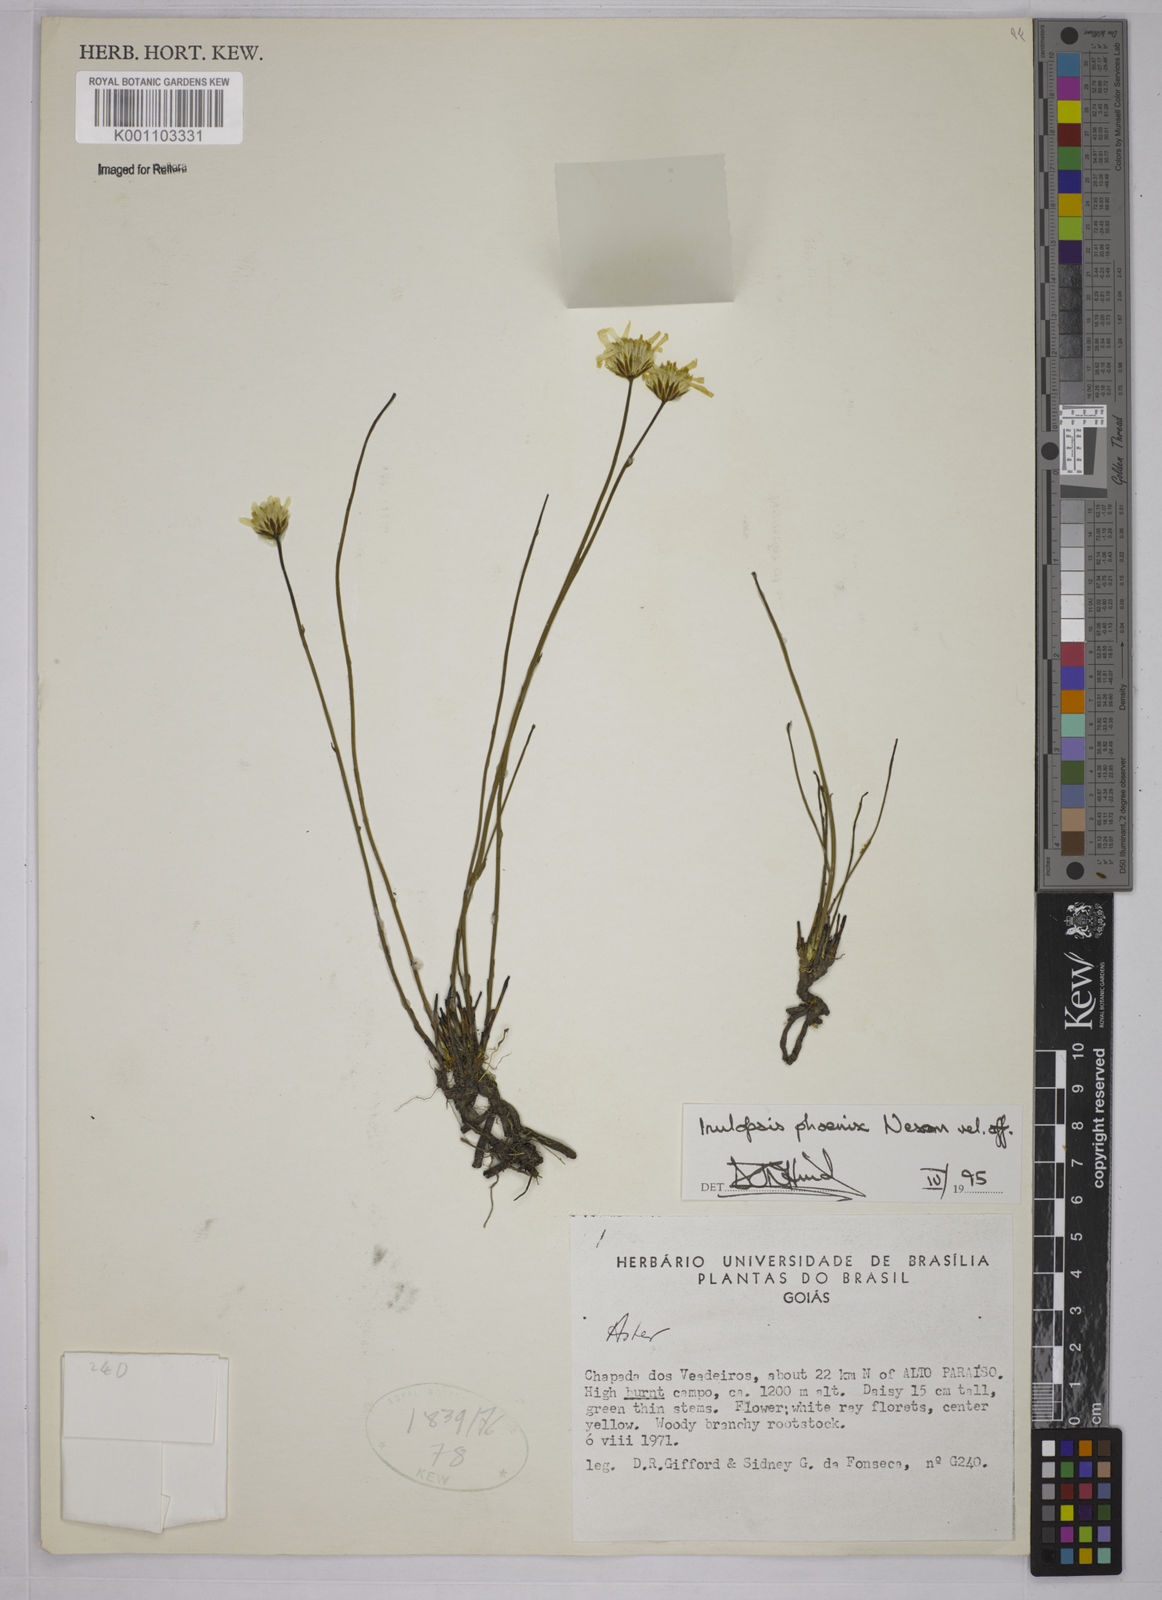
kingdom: Plantae
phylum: Tracheophyta
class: Magnoliopsida
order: Asterales
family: Asteraceae
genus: Inulopsis
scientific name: Inulopsis phoenix
